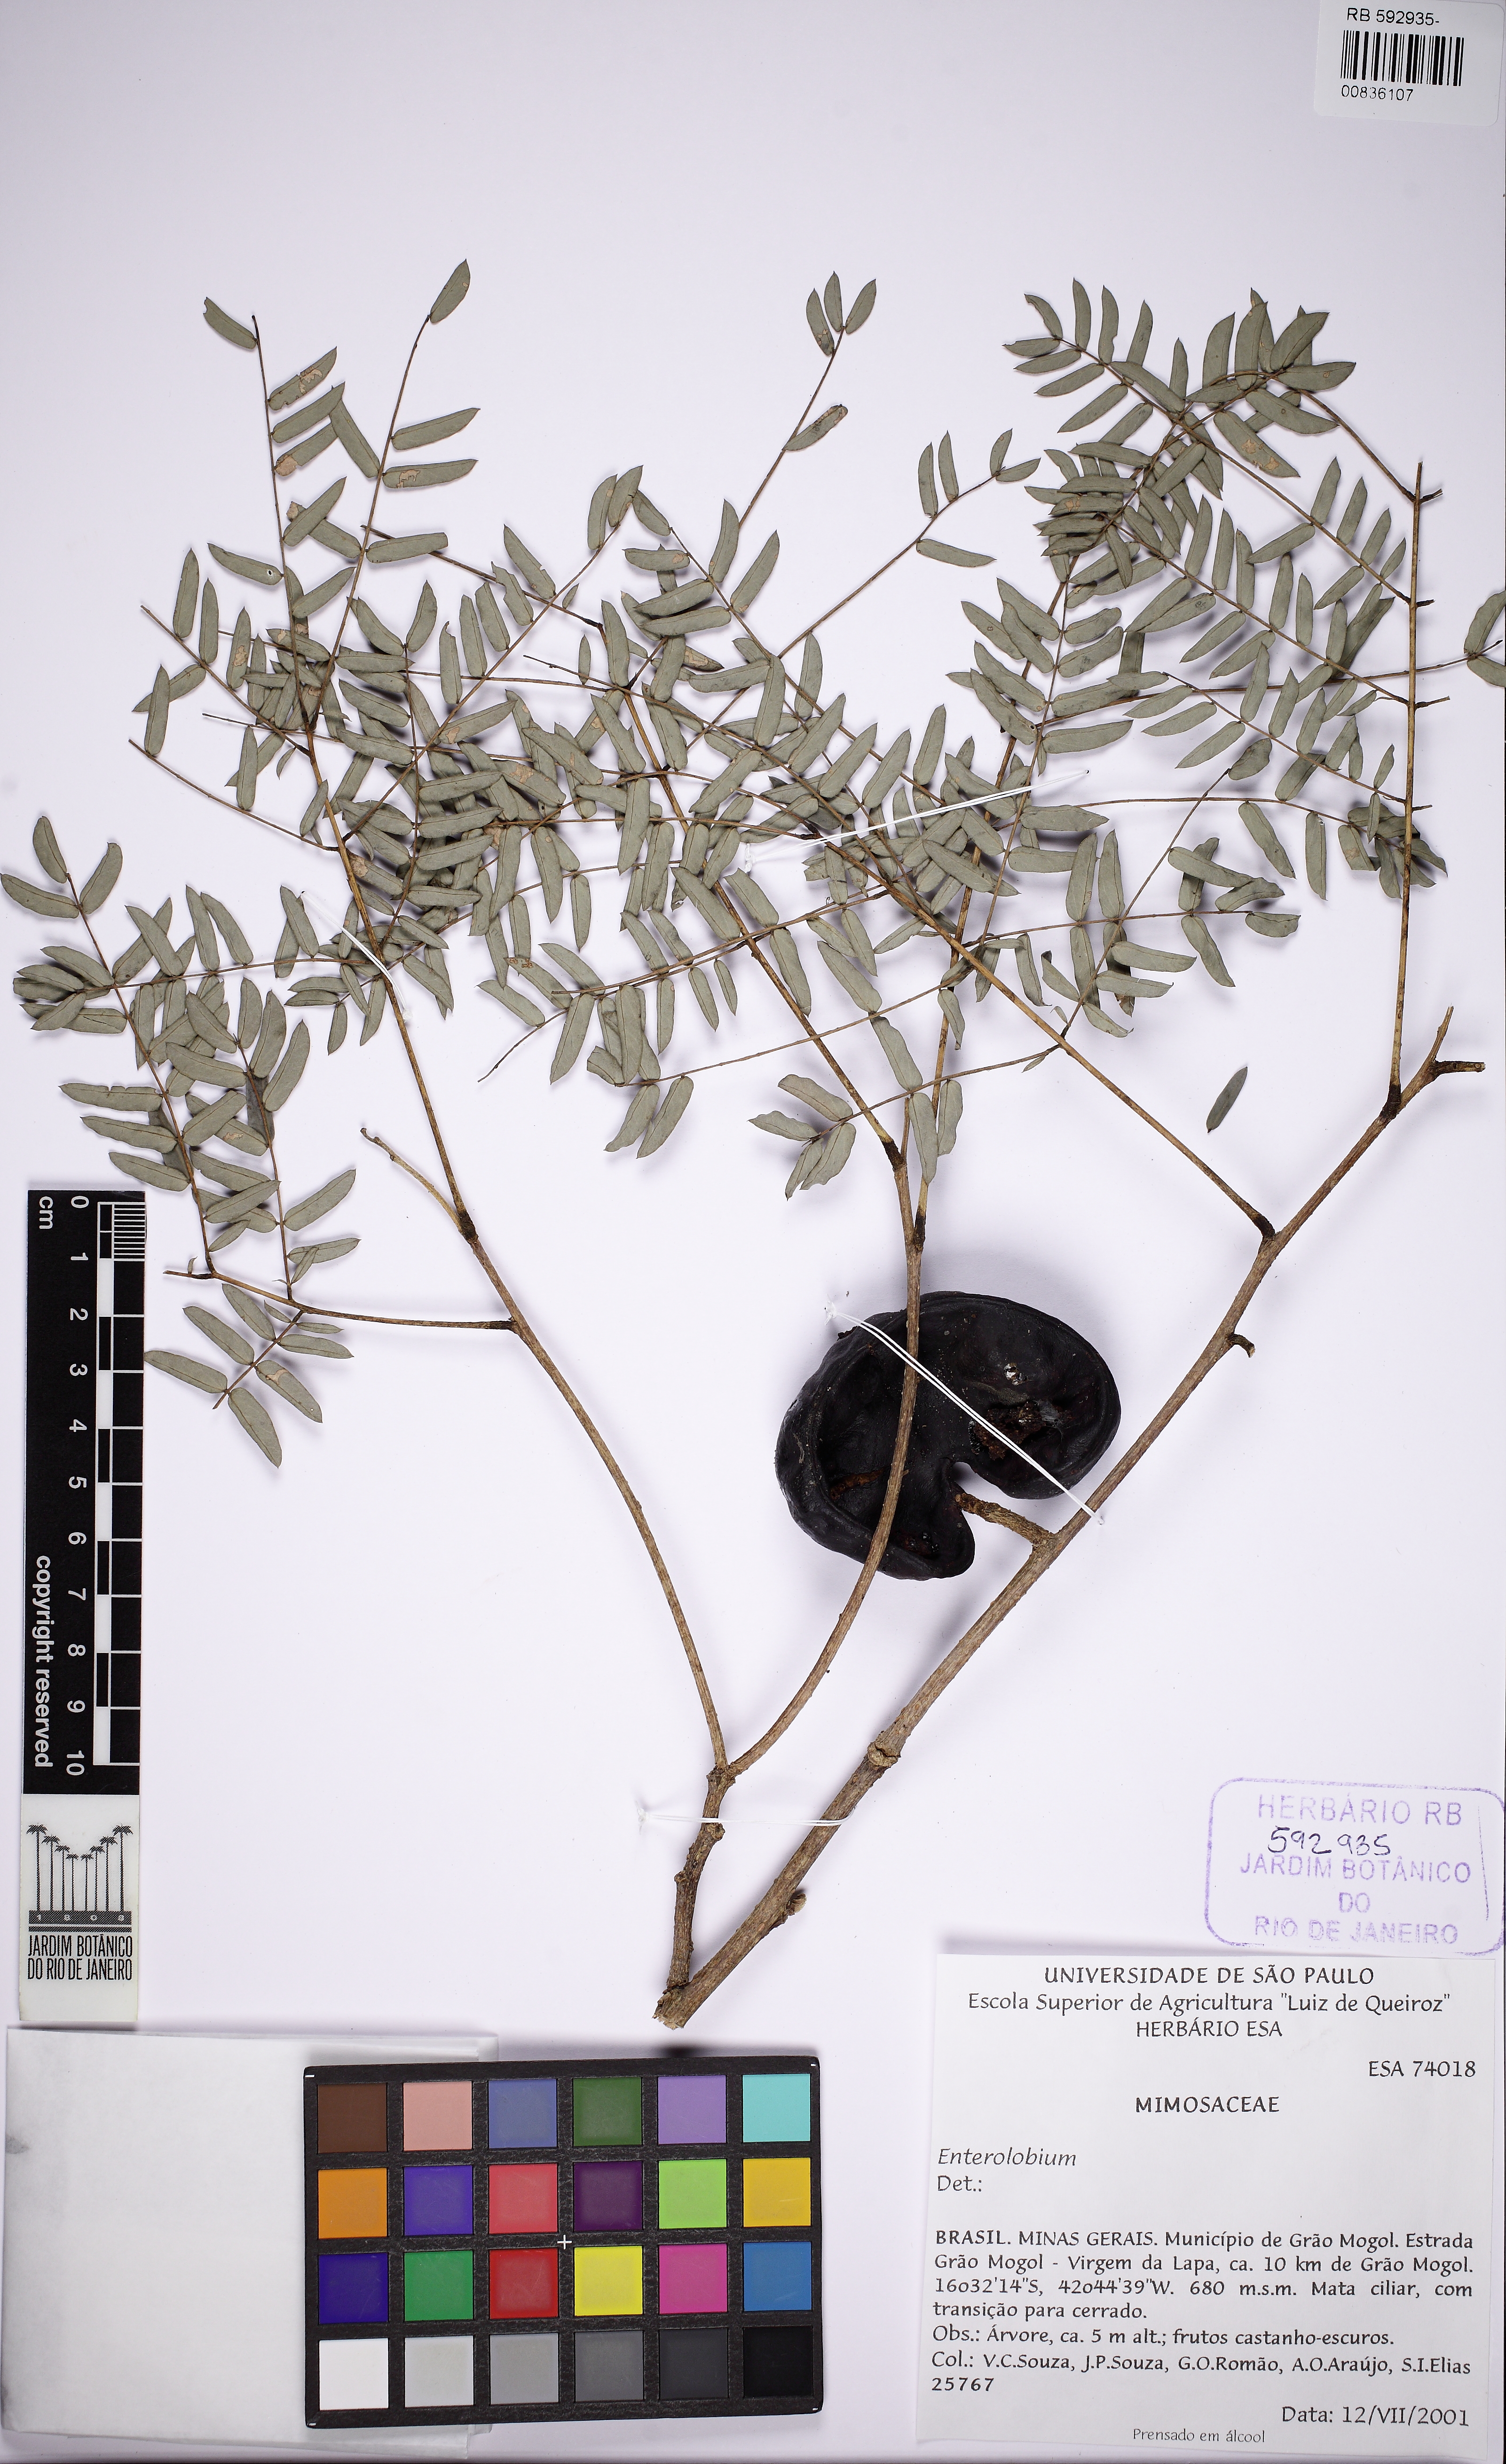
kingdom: Plantae
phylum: Tracheophyta
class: Magnoliopsida
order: Fabales
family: Fabaceae
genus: Enterolobium
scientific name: Enterolobium contortisiliquum
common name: Pacara earpod tree
